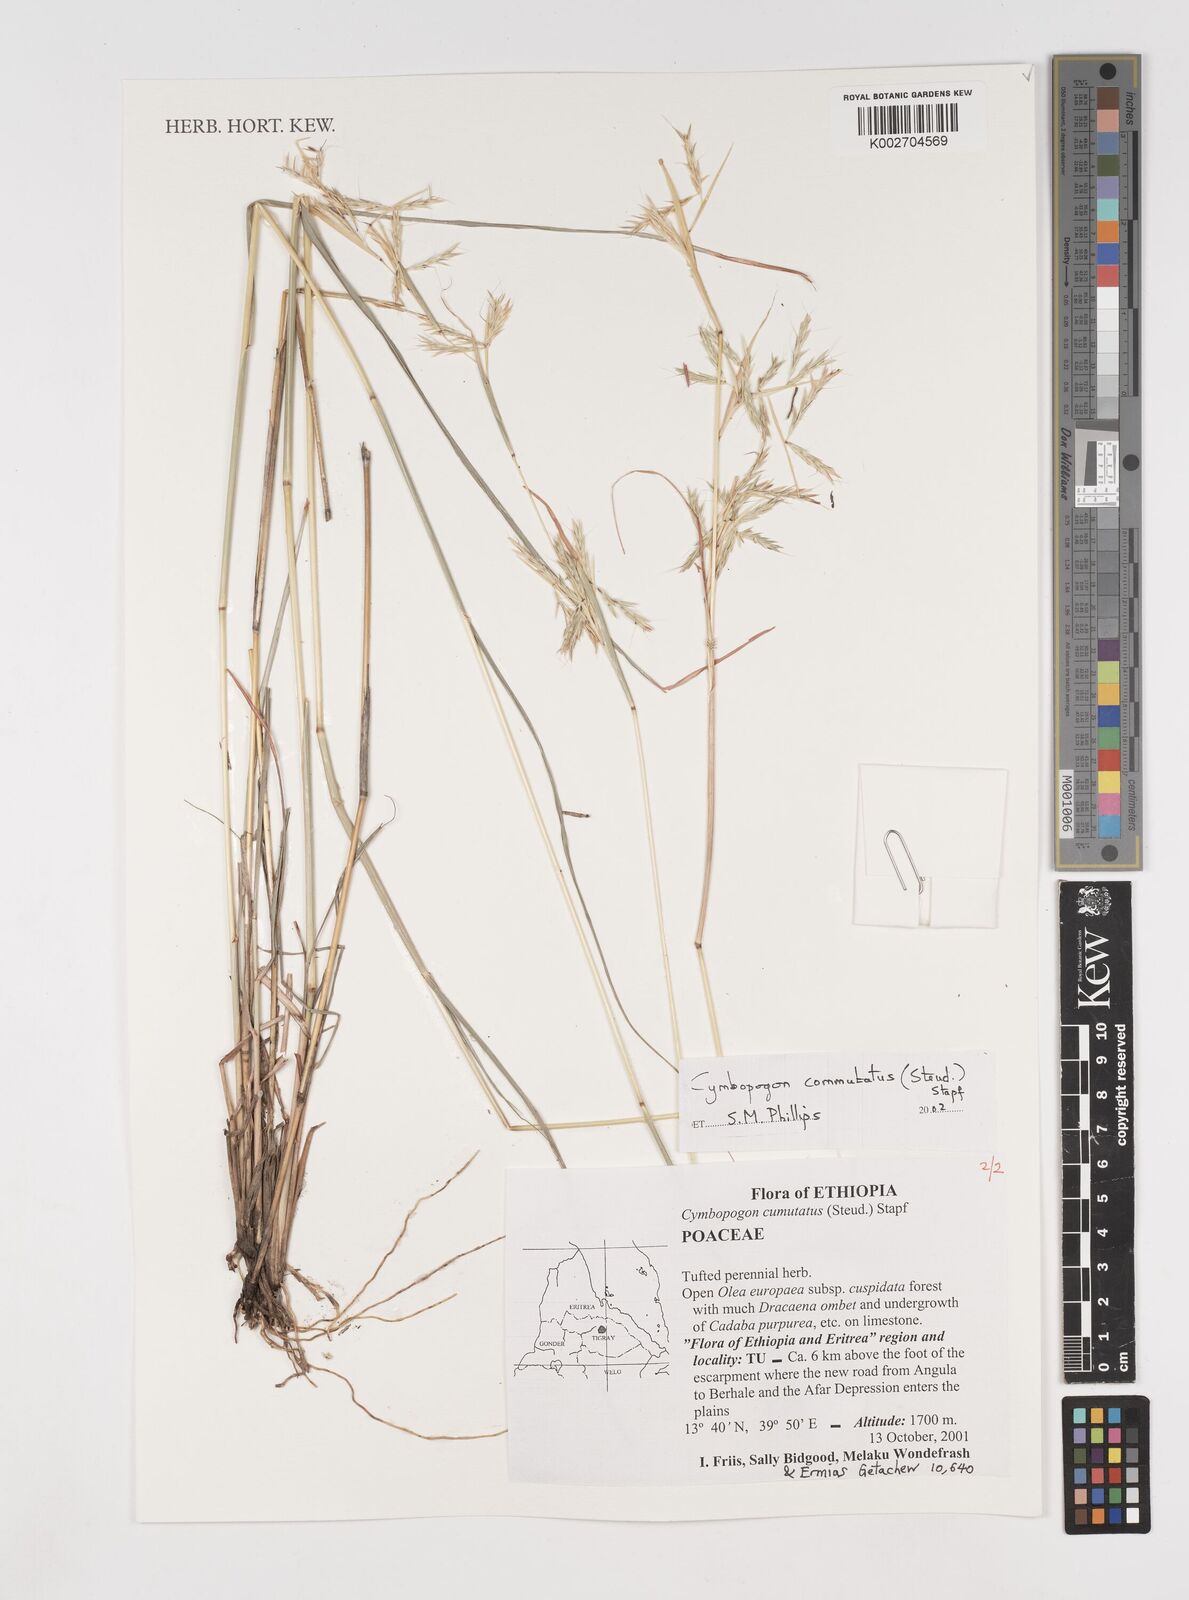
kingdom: Plantae
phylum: Tracheophyta
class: Liliopsida
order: Poales
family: Poaceae
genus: Cymbopogon
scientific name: Cymbopogon commutatus
